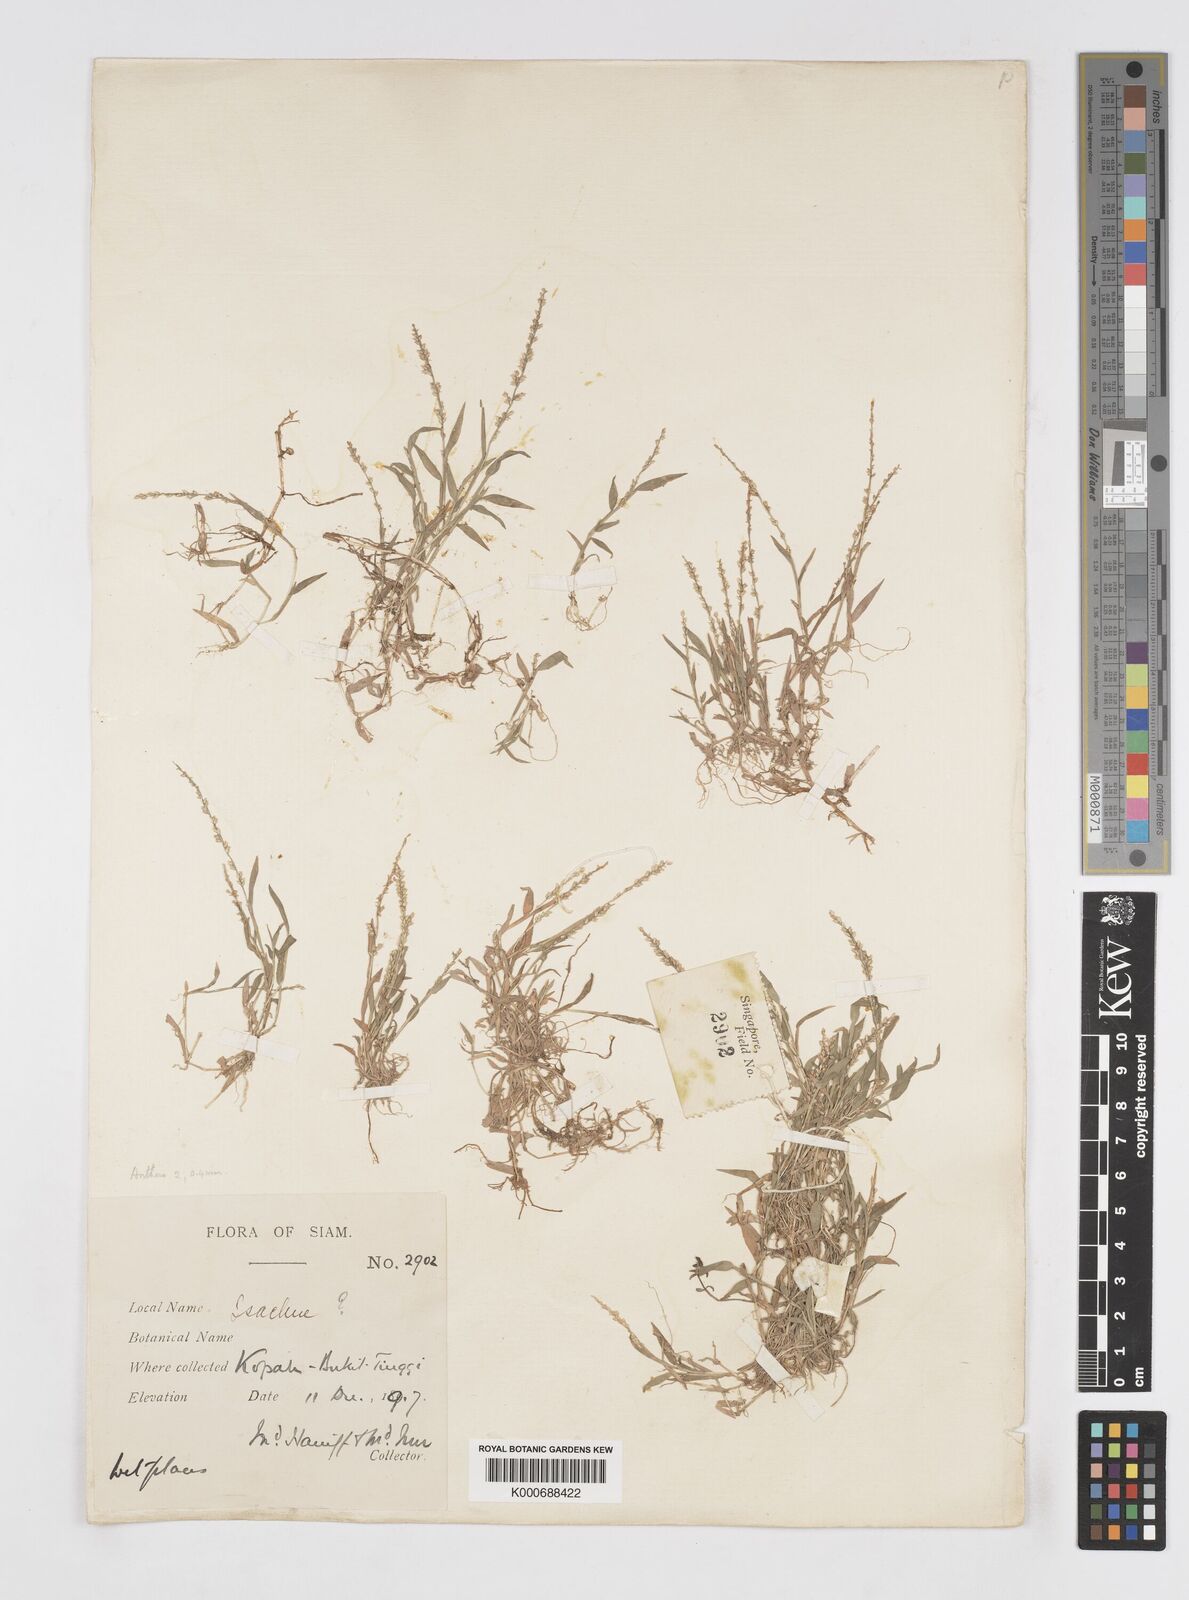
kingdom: Plantae
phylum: Tracheophyta
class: Liliopsida
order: Poales
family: Poaceae
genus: Coelachne
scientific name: Coelachne simpliciuscula
